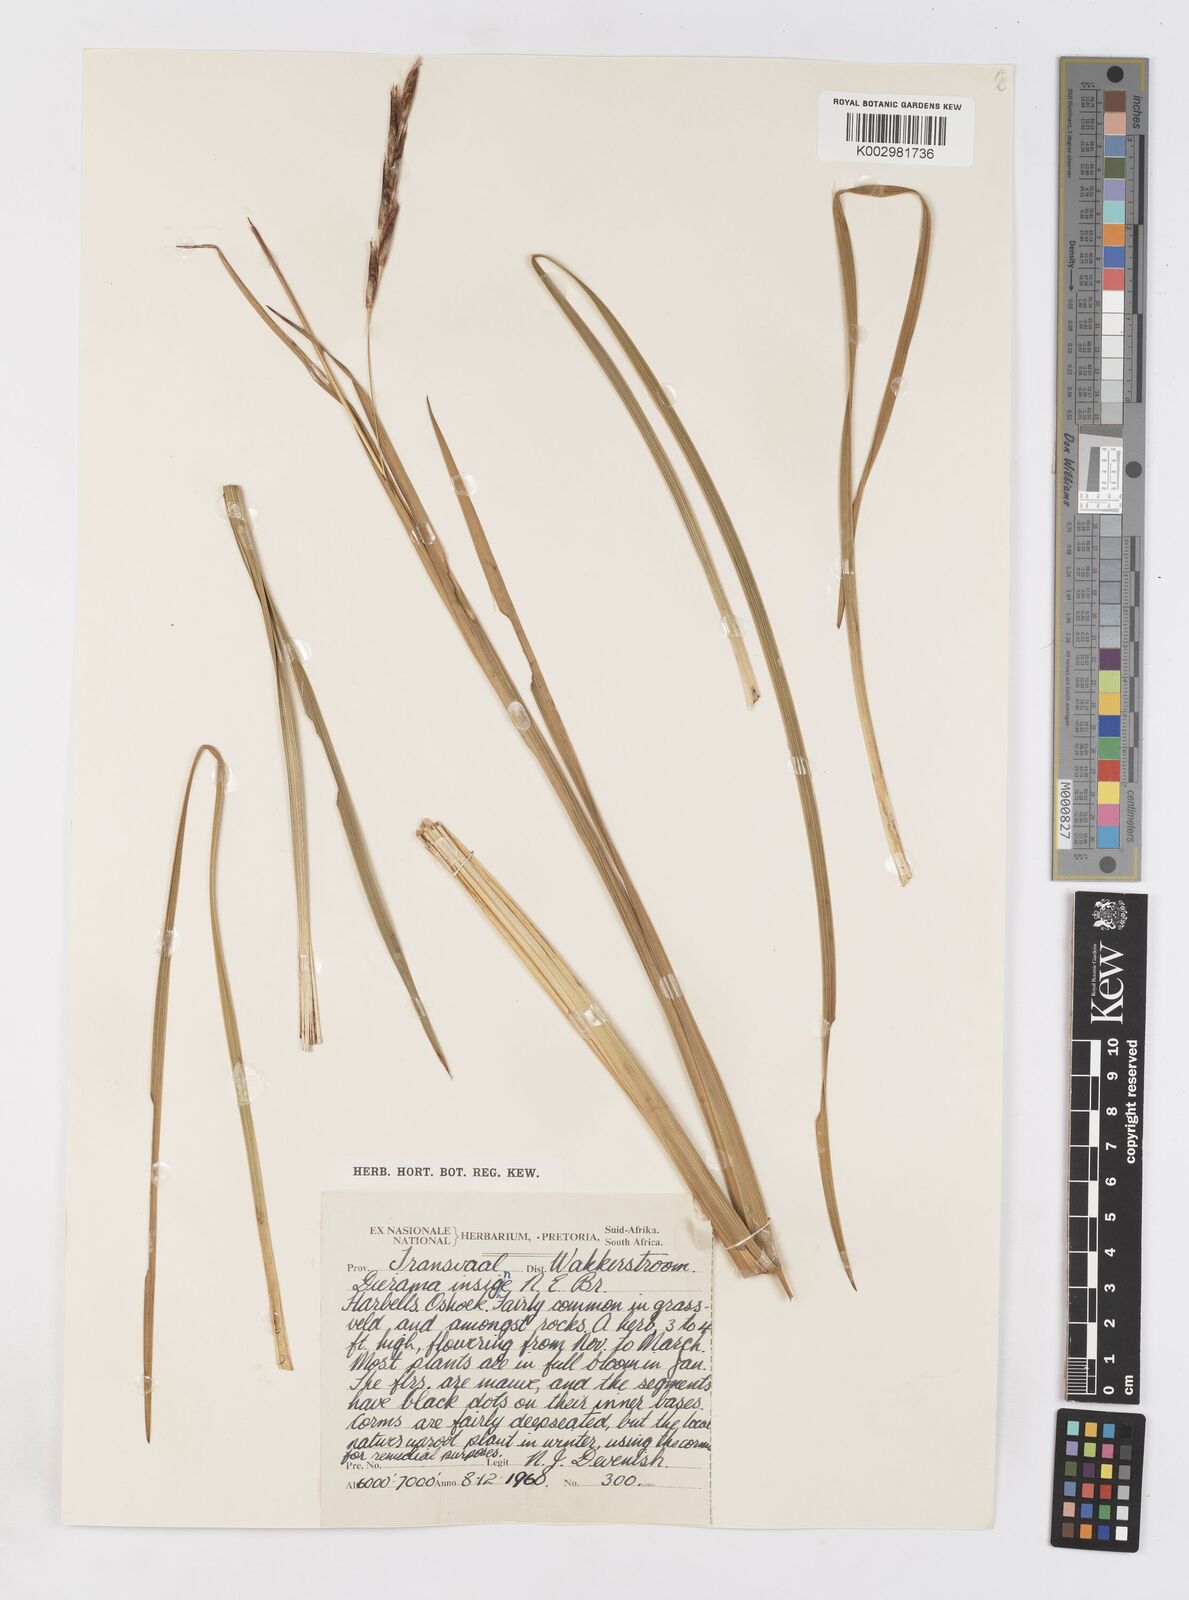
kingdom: Plantae
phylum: Tracheophyta
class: Liliopsida
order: Asparagales
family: Iridaceae
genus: Dierama
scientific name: Dierama insigne
